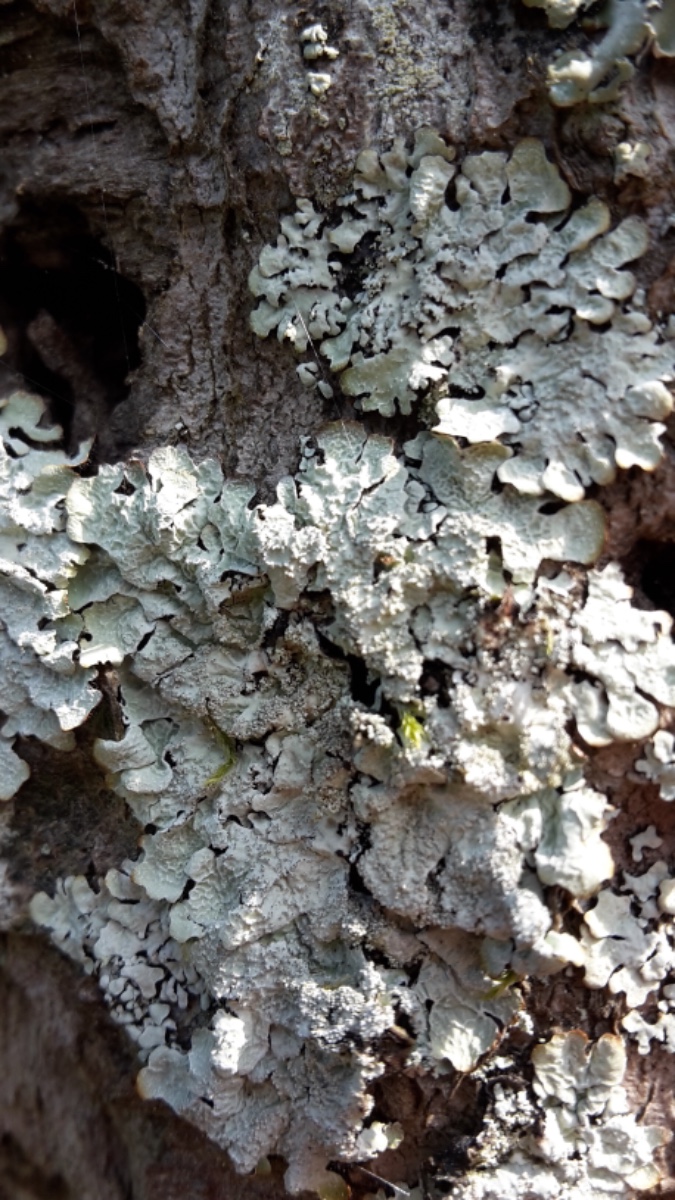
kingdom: Fungi
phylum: Ascomycota
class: Lecanoromycetes
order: Lecanorales
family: Parmeliaceae
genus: Parmelia
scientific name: Parmelia sulcata
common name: rynket skållav
